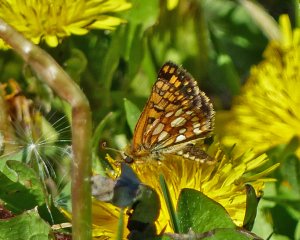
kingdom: Animalia
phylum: Arthropoda
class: Insecta
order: Lepidoptera
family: Hesperiidae
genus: Carterocephalus
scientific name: Carterocephalus palaemon
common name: Chequered Skipper
